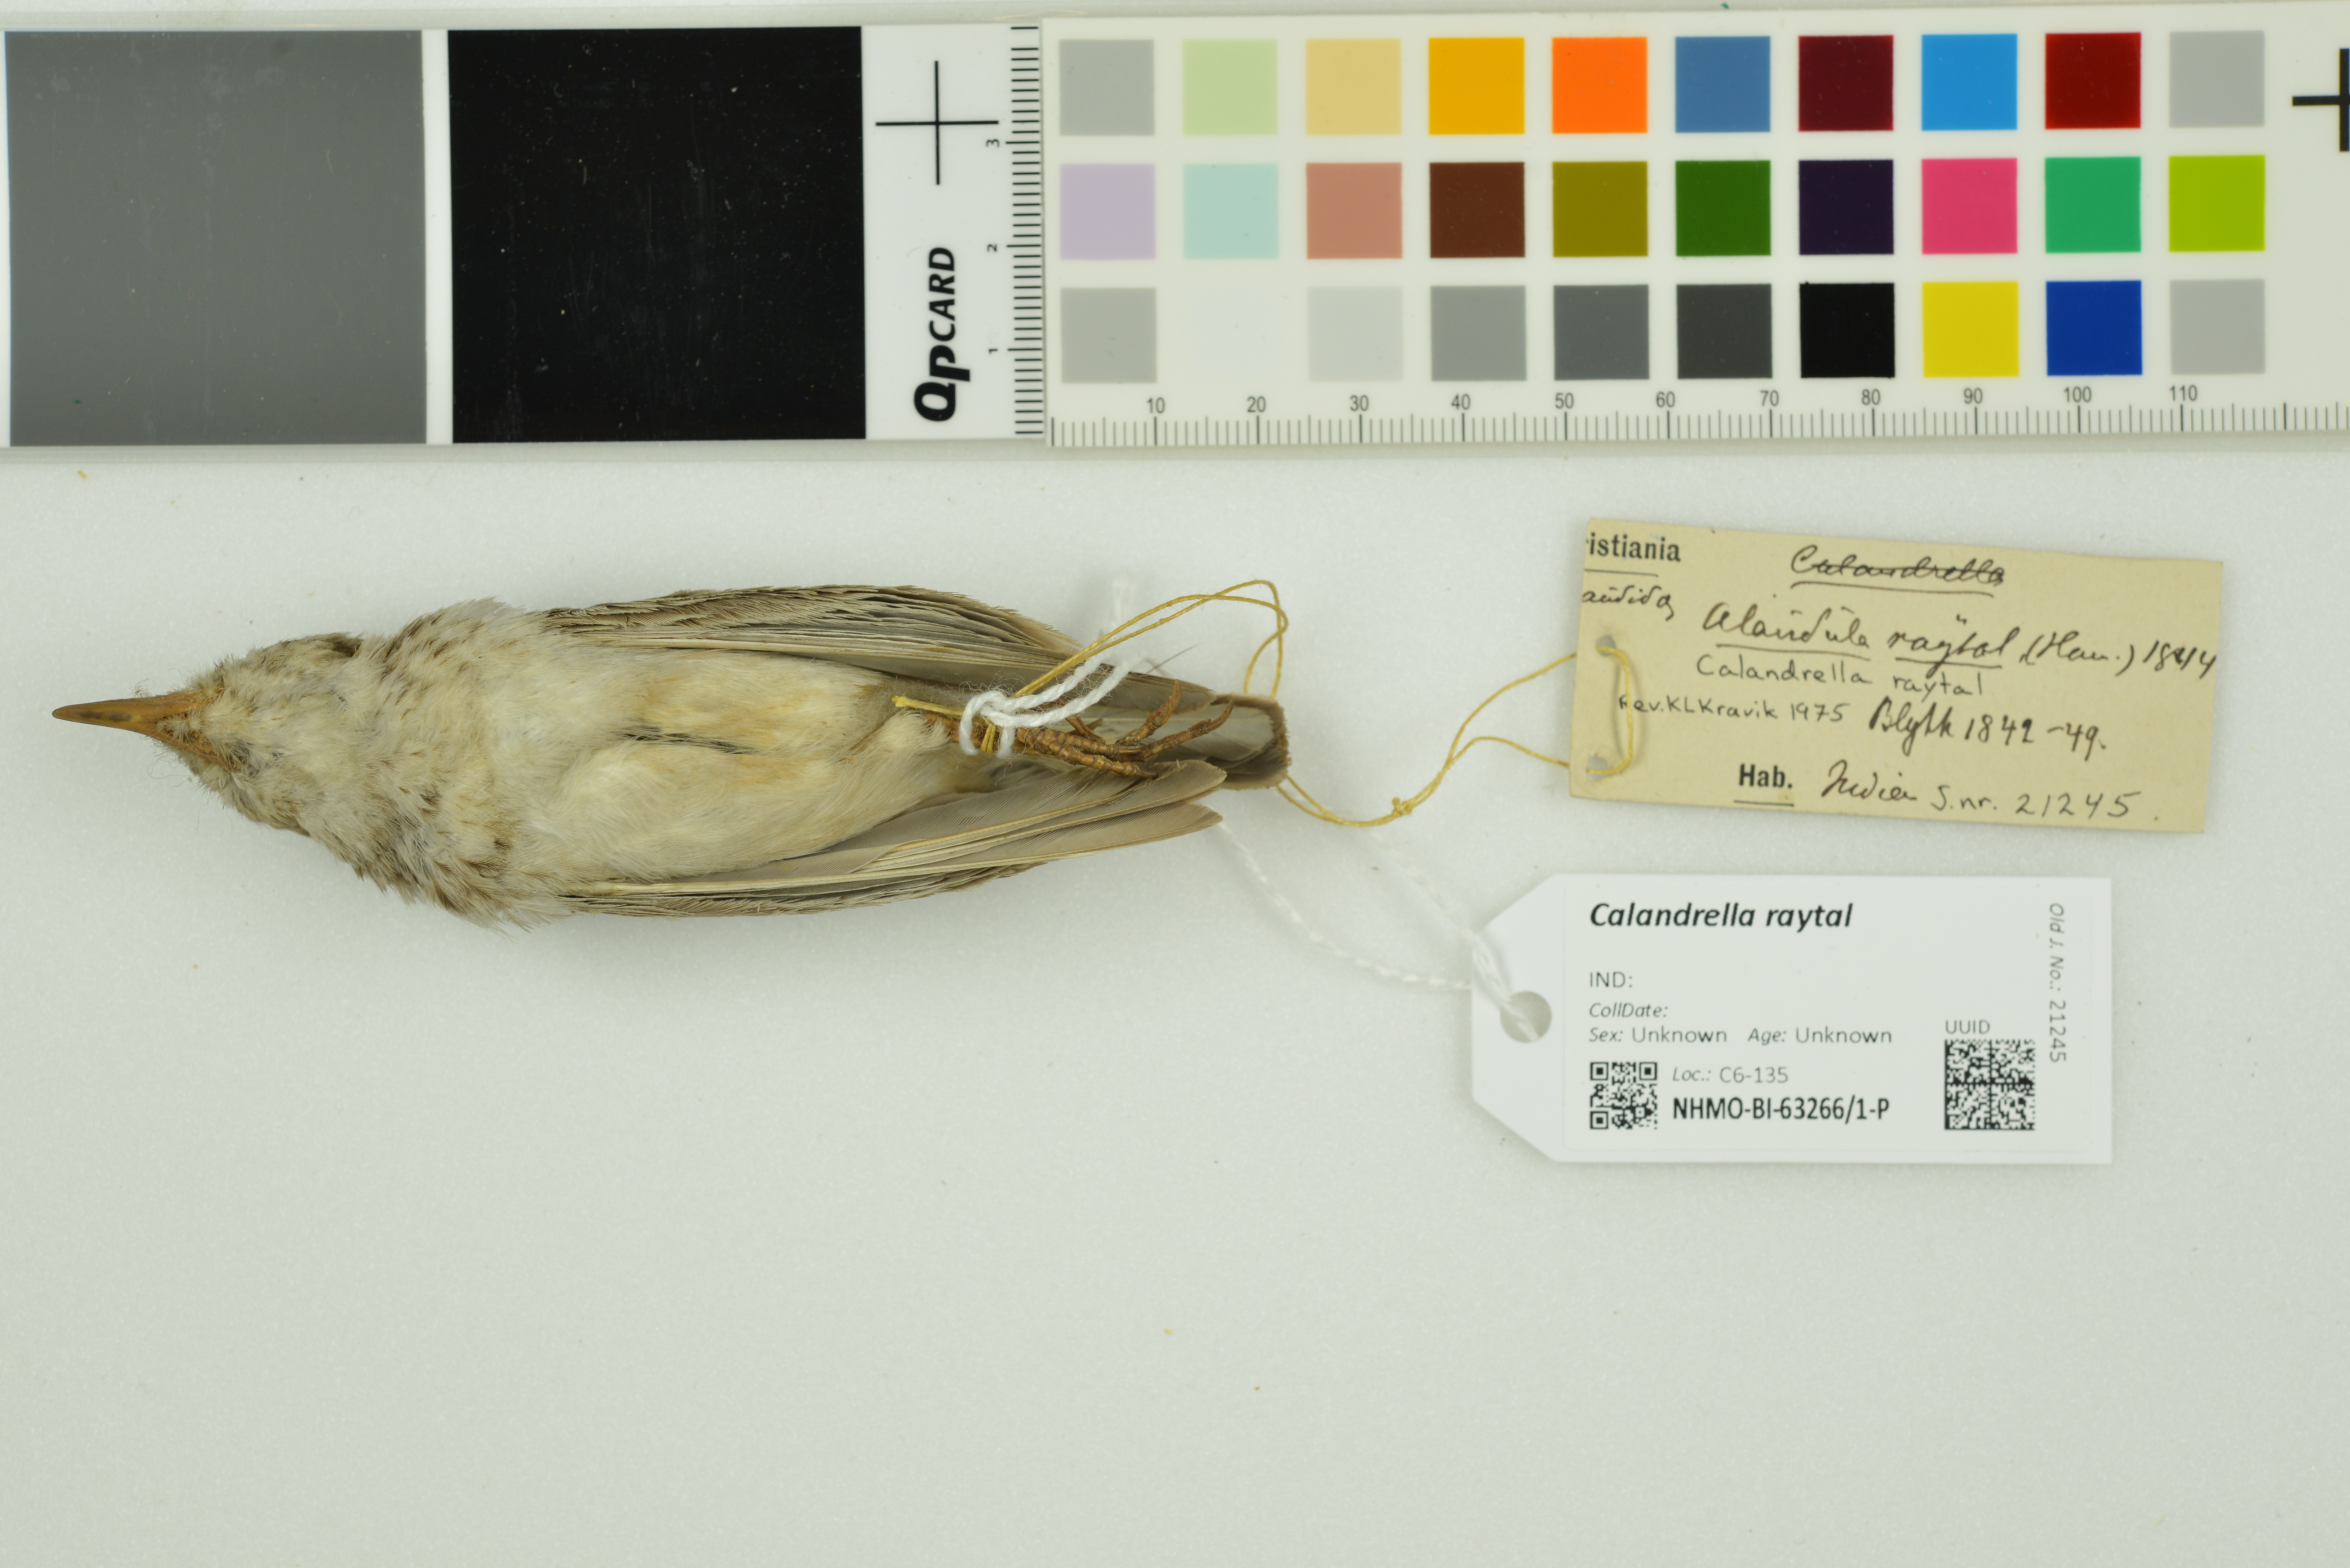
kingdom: Animalia
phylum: Chordata
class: Aves
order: Passeriformes
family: Alaudidae
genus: Calandrella
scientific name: Calandrella raytal
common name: Sand lark
